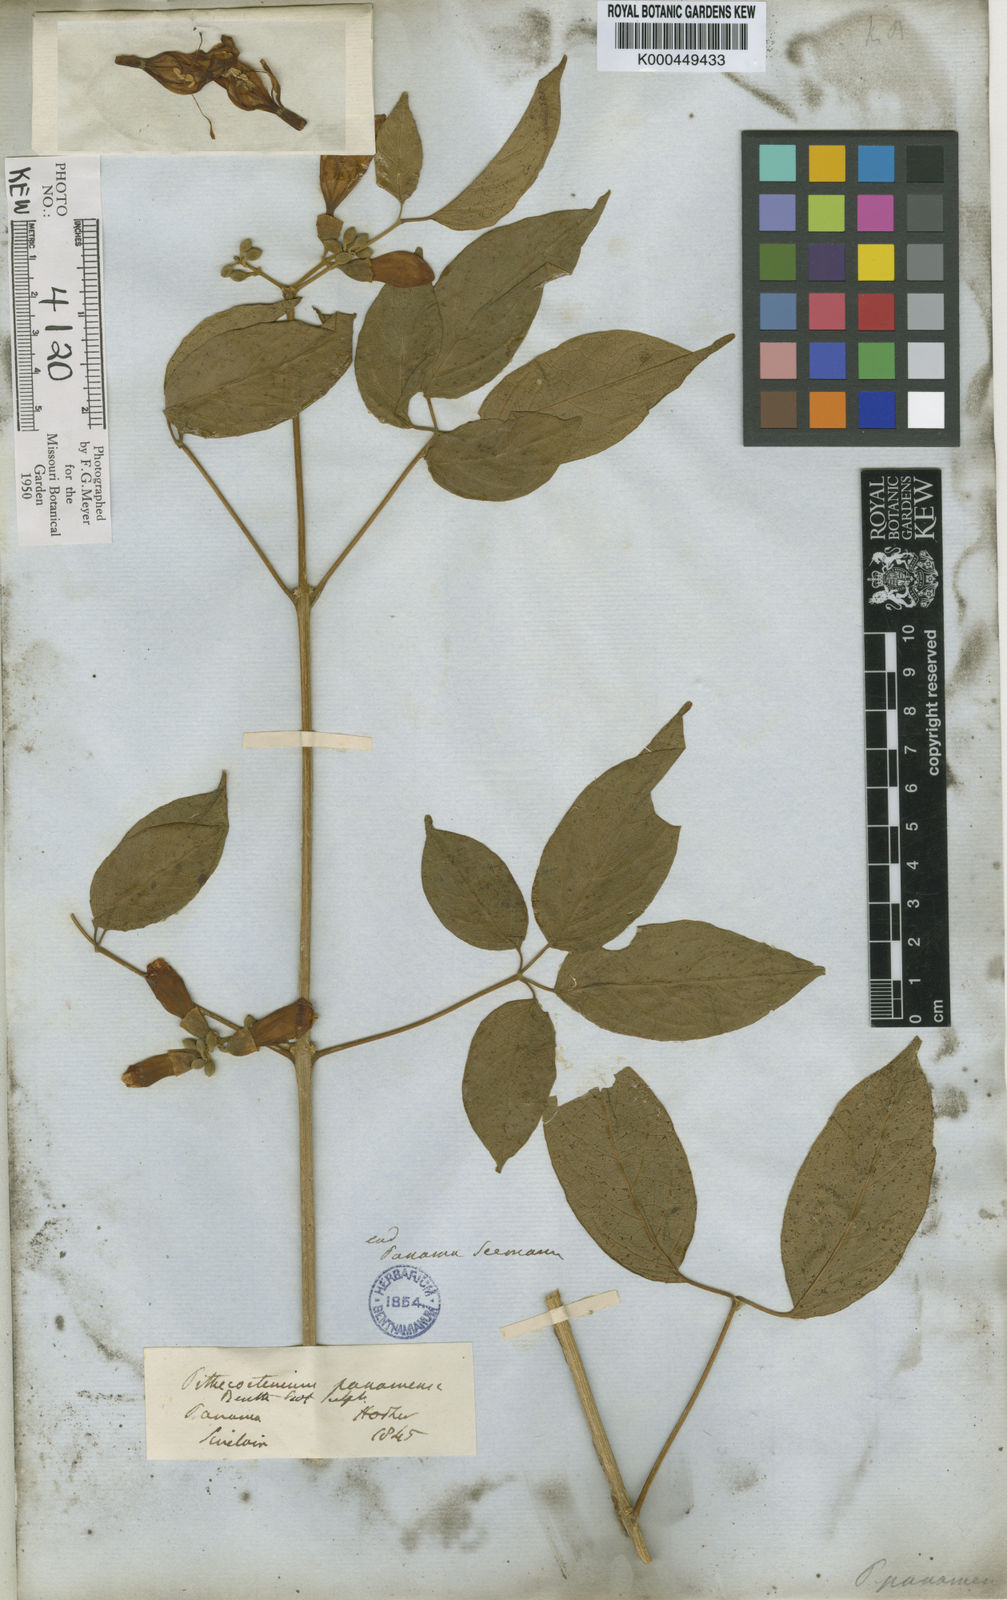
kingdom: Plantae
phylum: Tracheophyta
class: Magnoliopsida
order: Lamiales
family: Bignoniaceae
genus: Anemopaegma
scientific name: Anemopaegma orbiculatum
